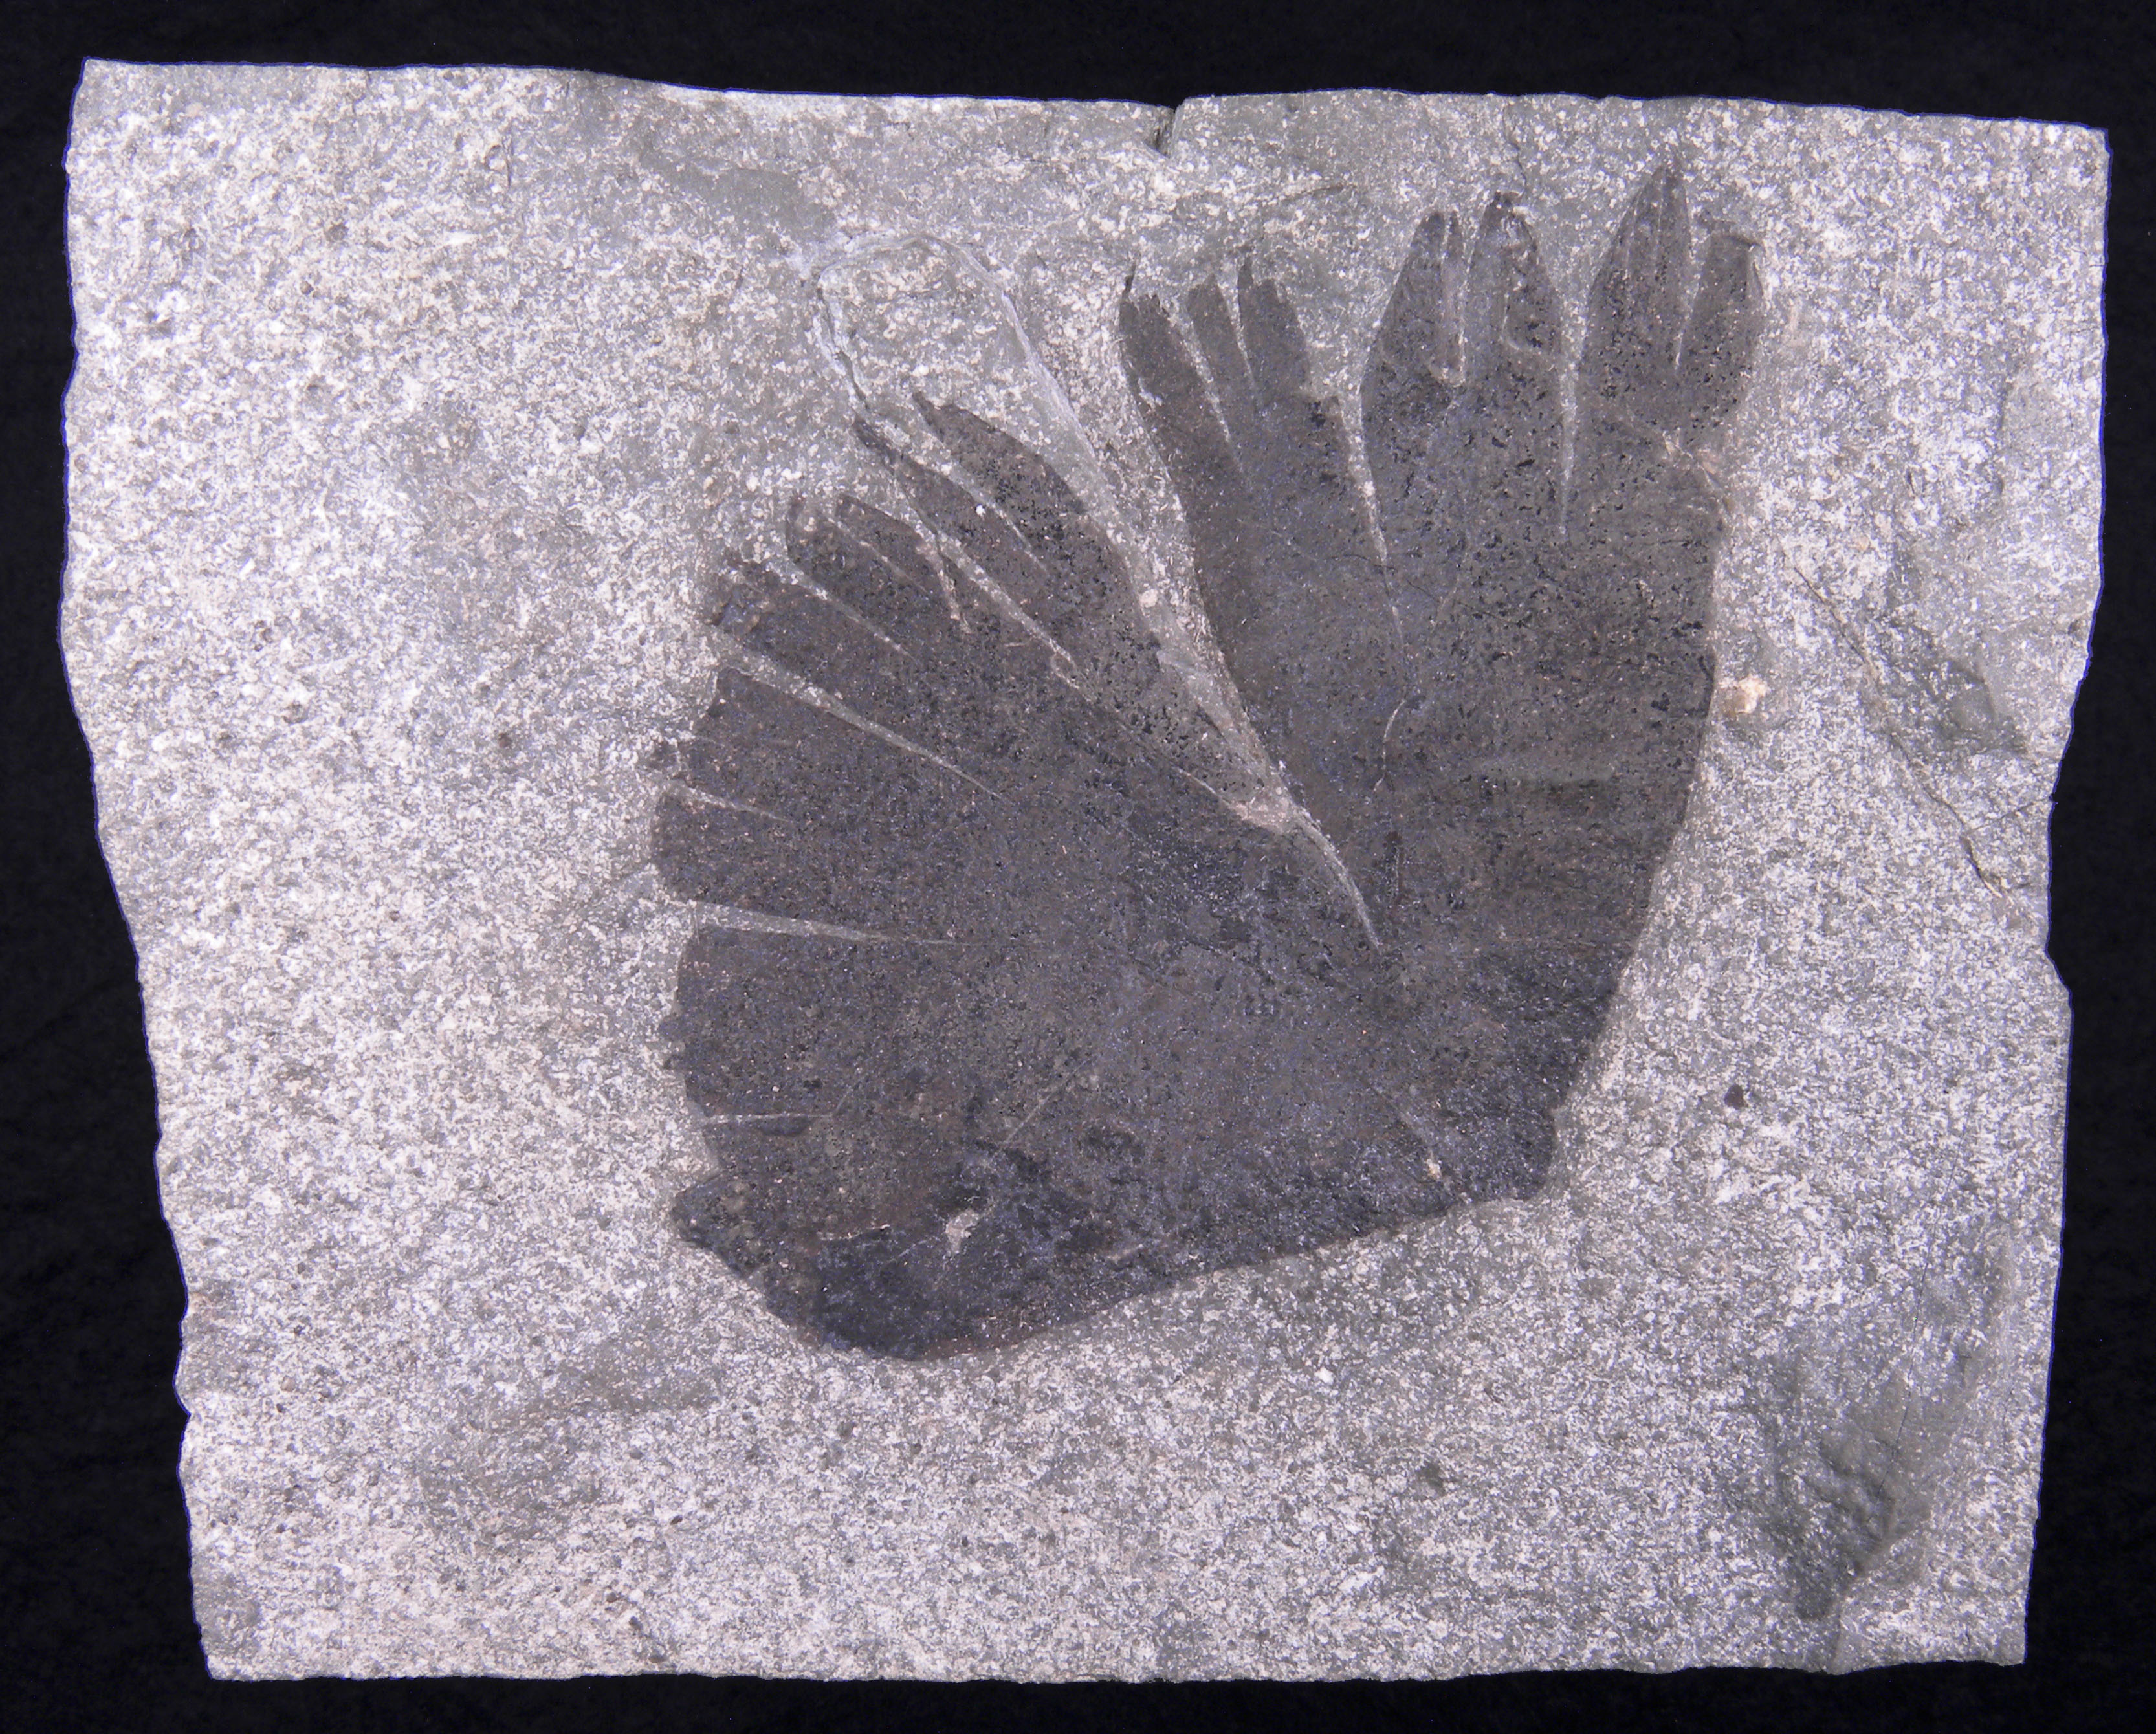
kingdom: Animalia
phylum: Mollusca
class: Cephalopoda
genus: Anaptychus
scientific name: Anaptychus
